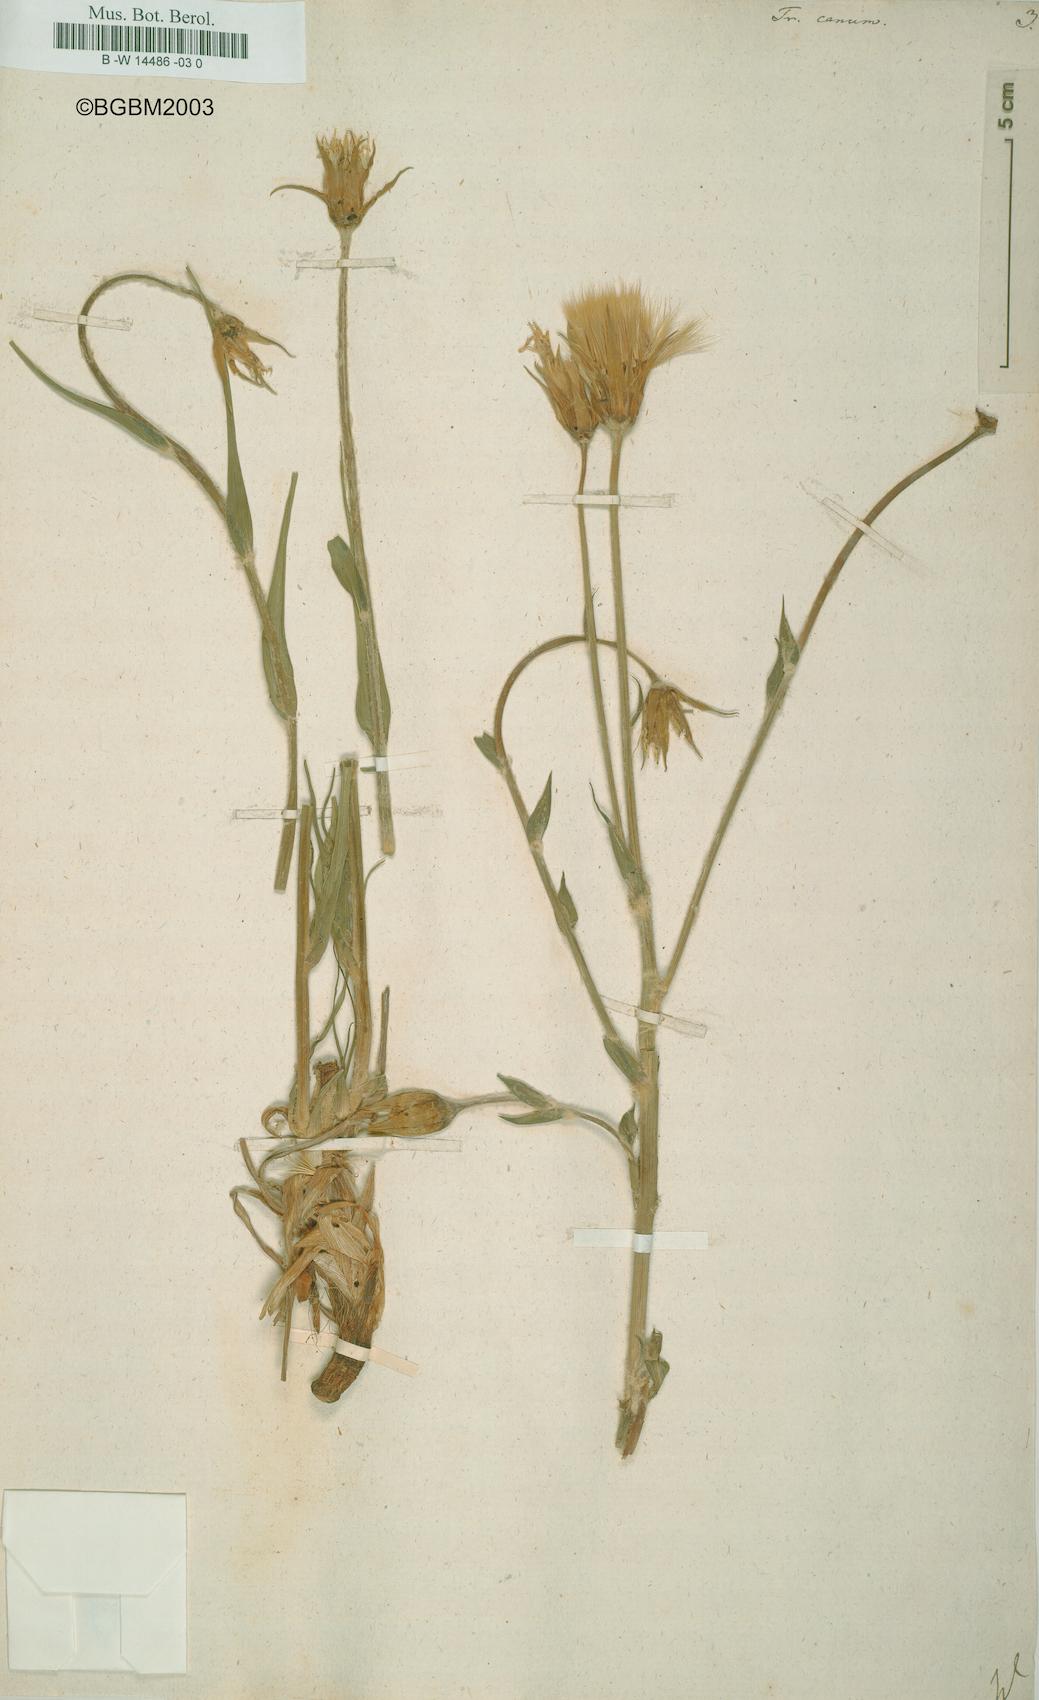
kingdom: Plantae
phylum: Tracheophyta
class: Magnoliopsida
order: Asterales
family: Asteraceae
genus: Tragopogon
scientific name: Tragopogon floccosus
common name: Woolly goatsbeard
